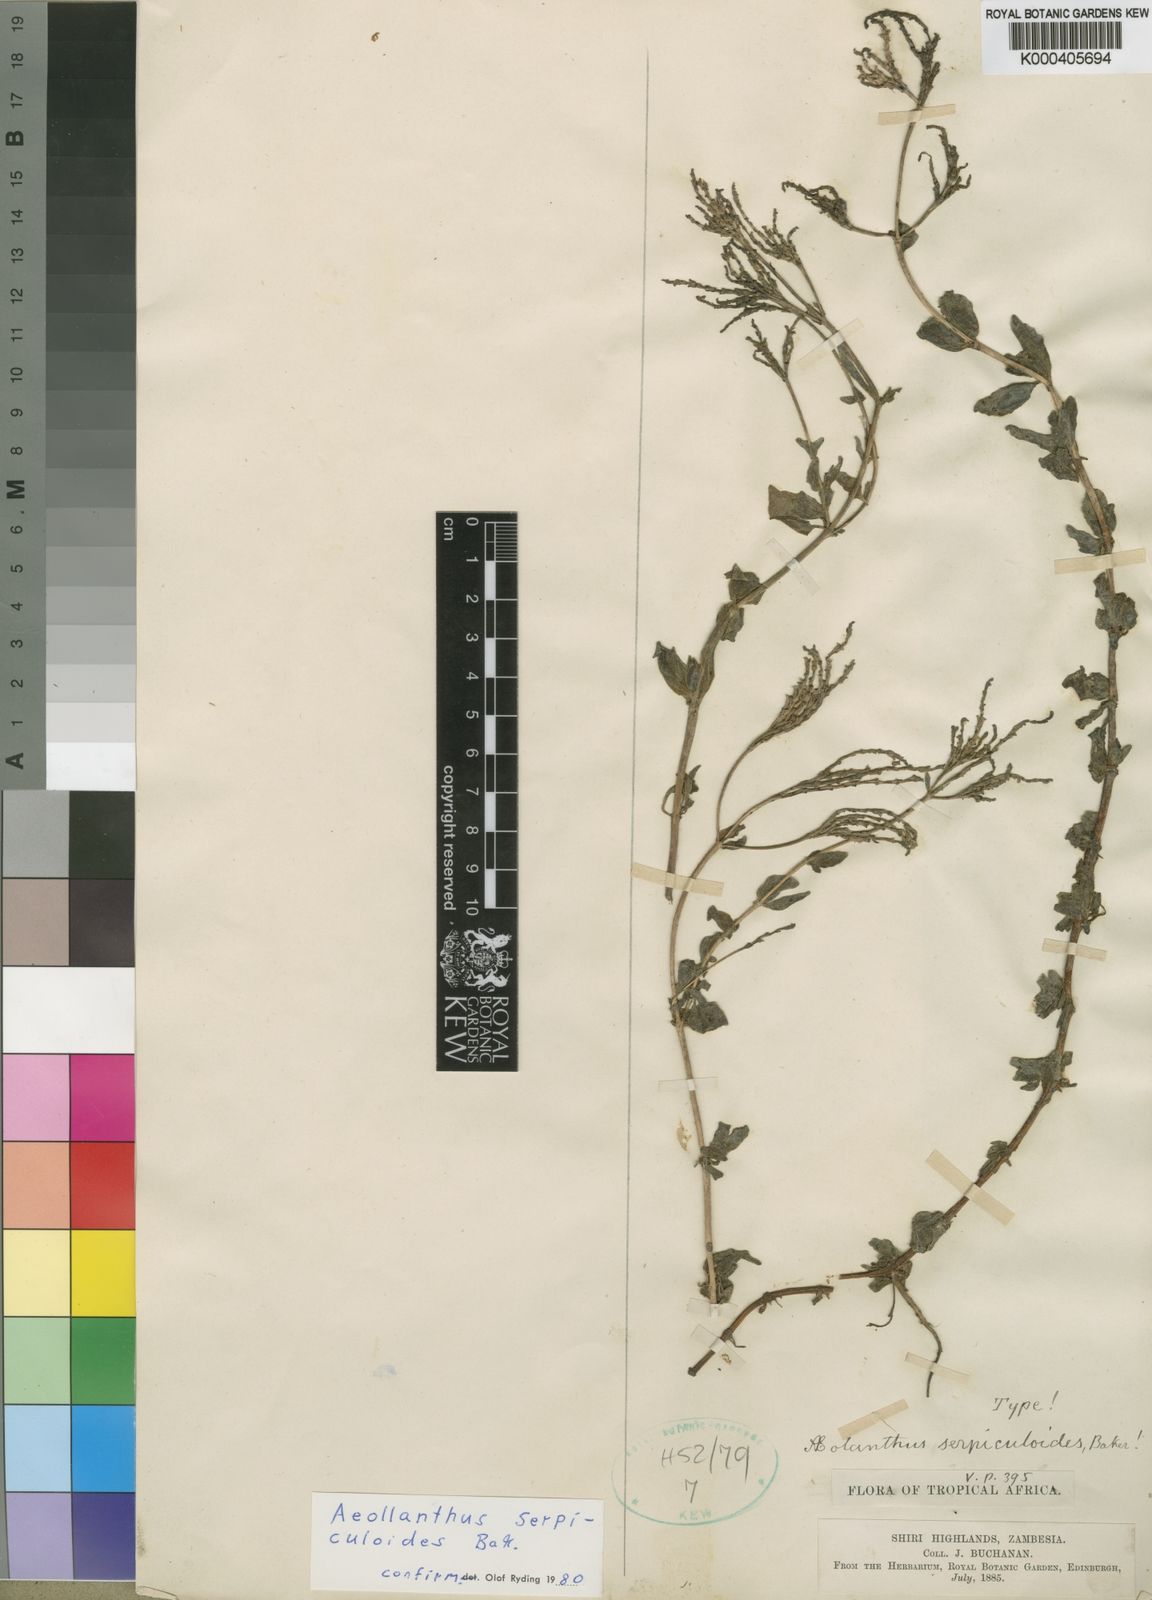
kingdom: Plantae
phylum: Tracheophyta
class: Magnoliopsida
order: Lamiales
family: Lamiaceae
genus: Aeollanthus
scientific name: Aeollanthus serpiculoides
